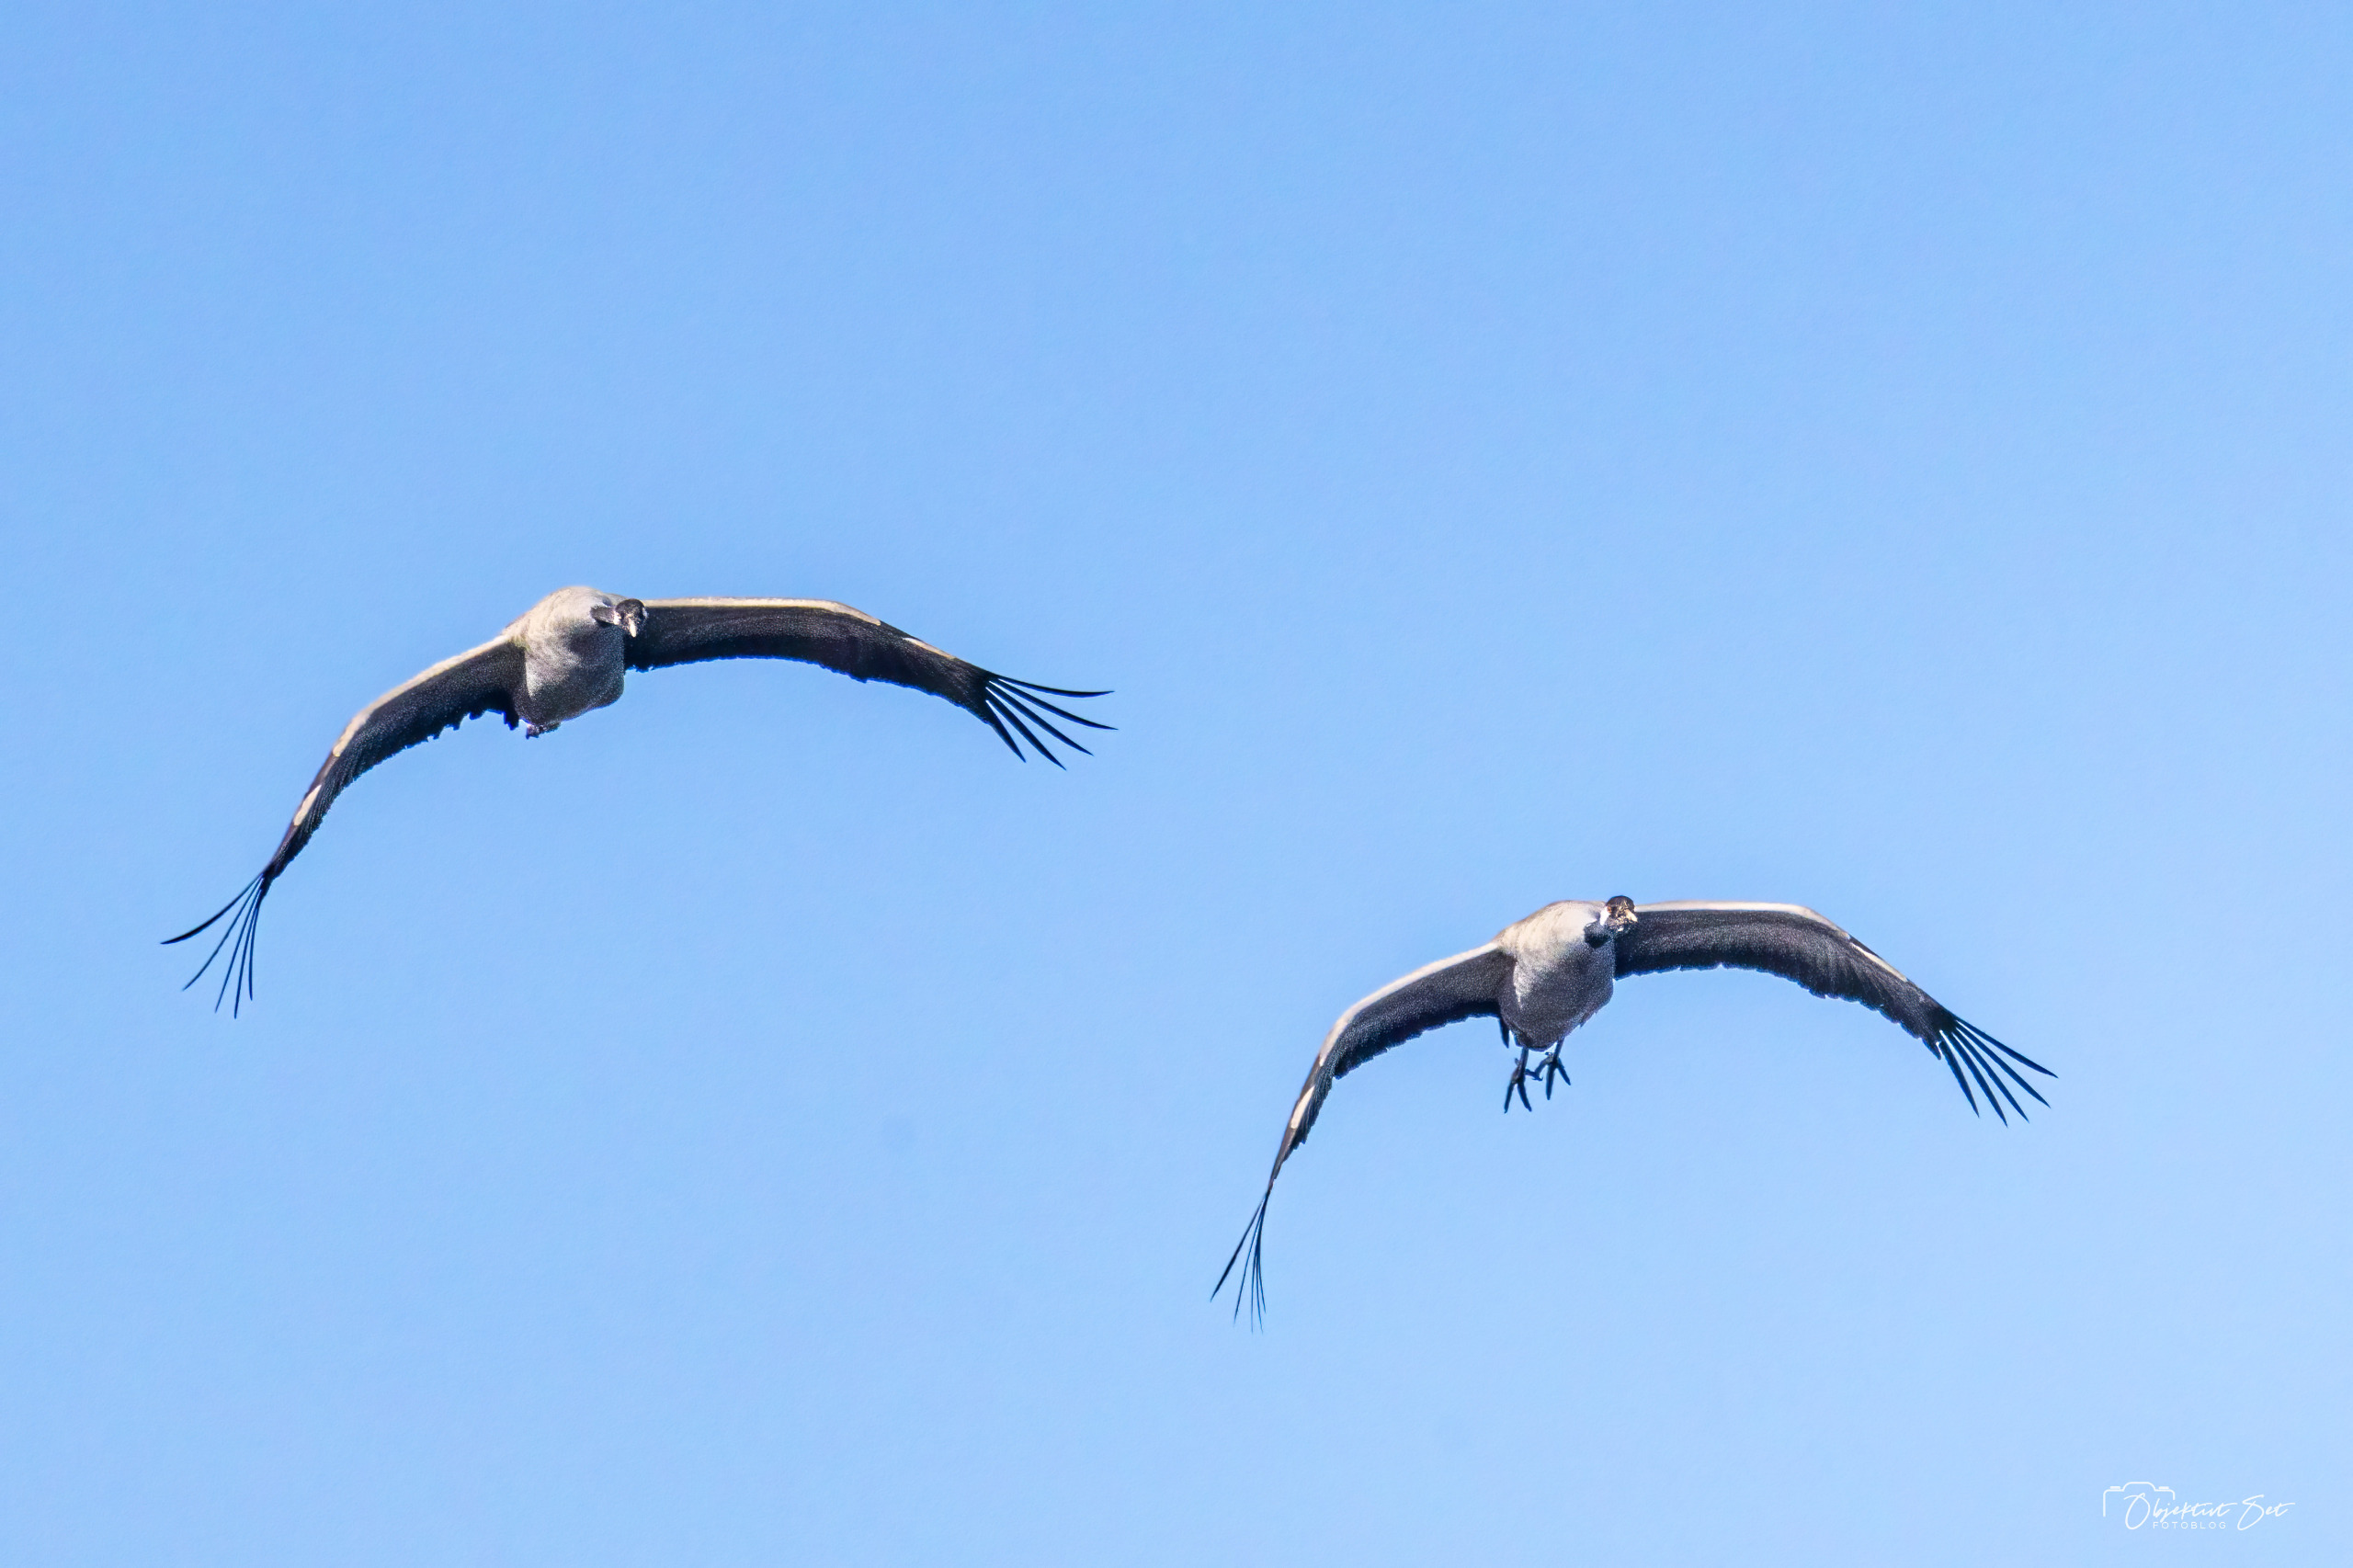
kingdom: Animalia
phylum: Chordata
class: Aves
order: Gruiformes
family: Gruidae
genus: Grus
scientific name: Grus grus
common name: Trane
